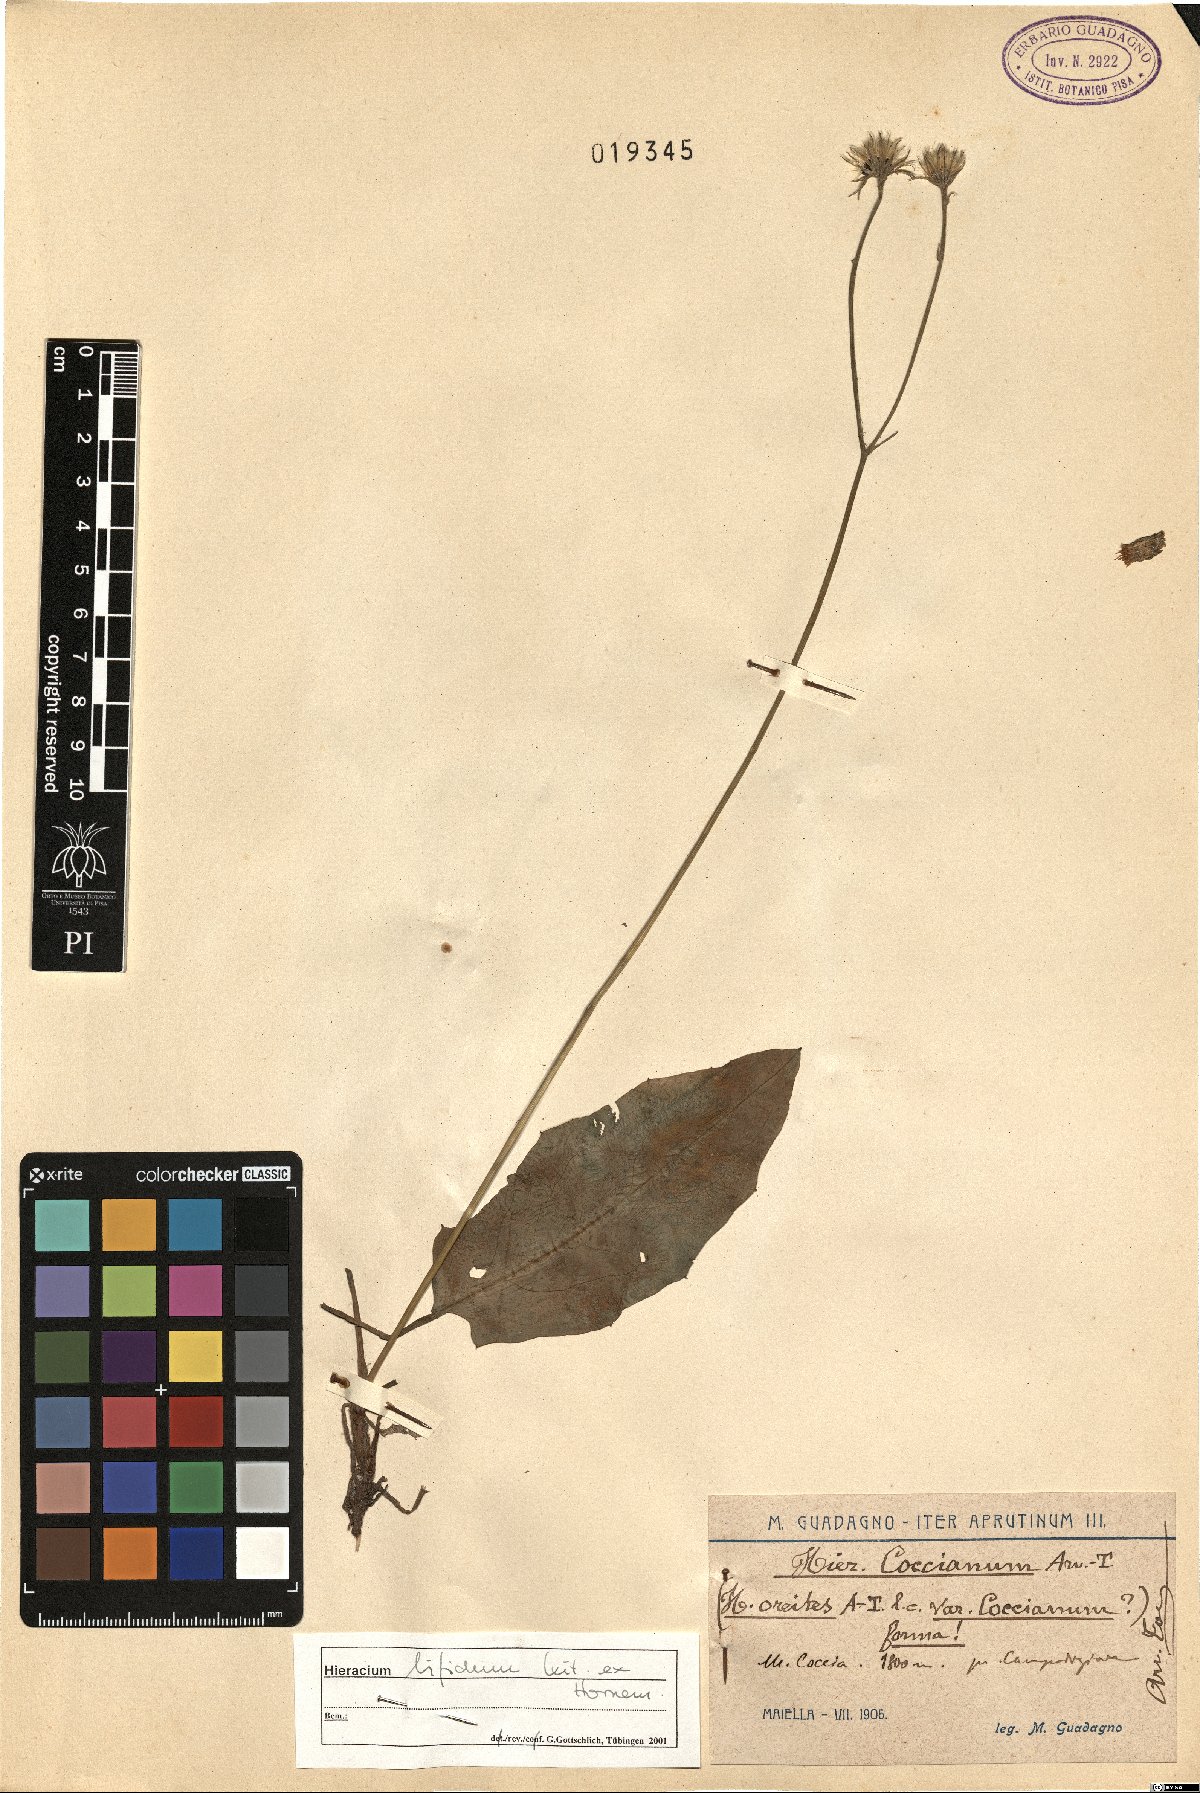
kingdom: Plantae
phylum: Tracheophyta
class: Magnoliopsida
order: Asterales
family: Asteraceae
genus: Hieracium
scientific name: Hieracium bifidum
